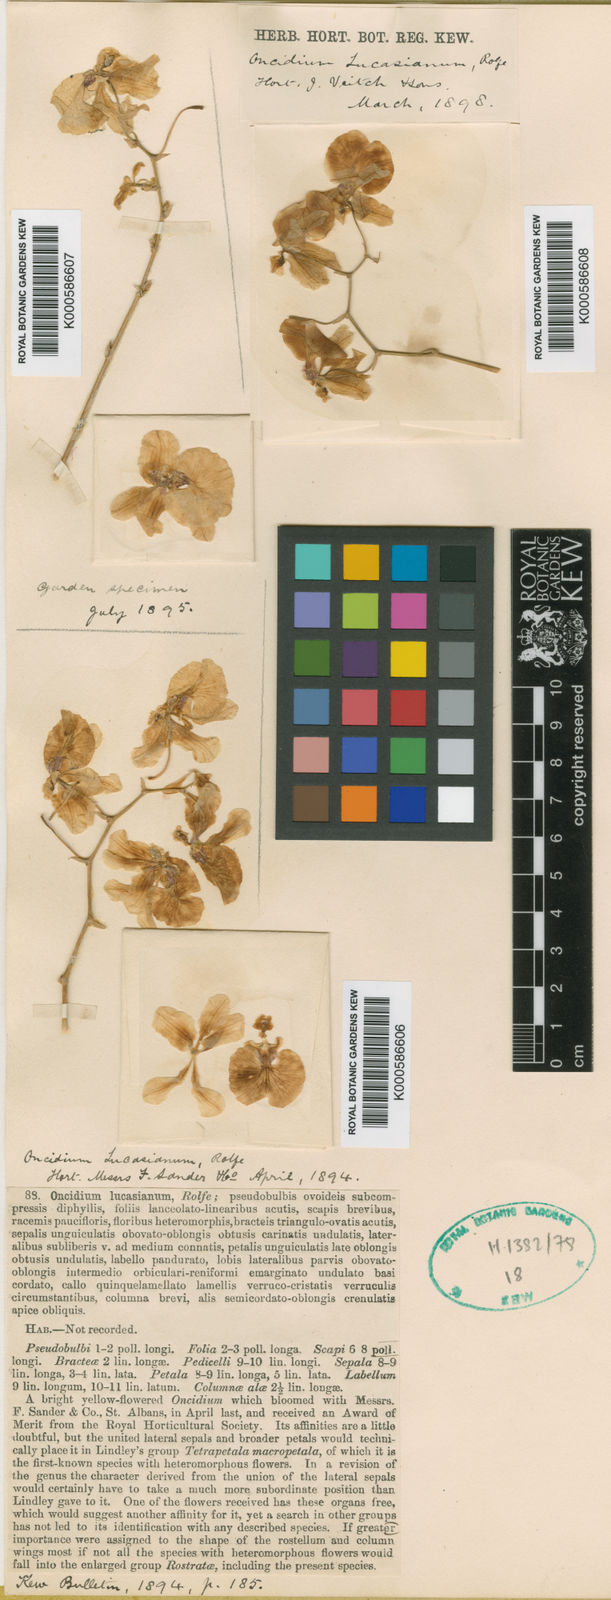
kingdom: Plantae
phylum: Tracheophyta
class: Liliopsida
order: Asparagales
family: Orchidaceae
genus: Vitekorchis
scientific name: Vitekorchis lucasiana
